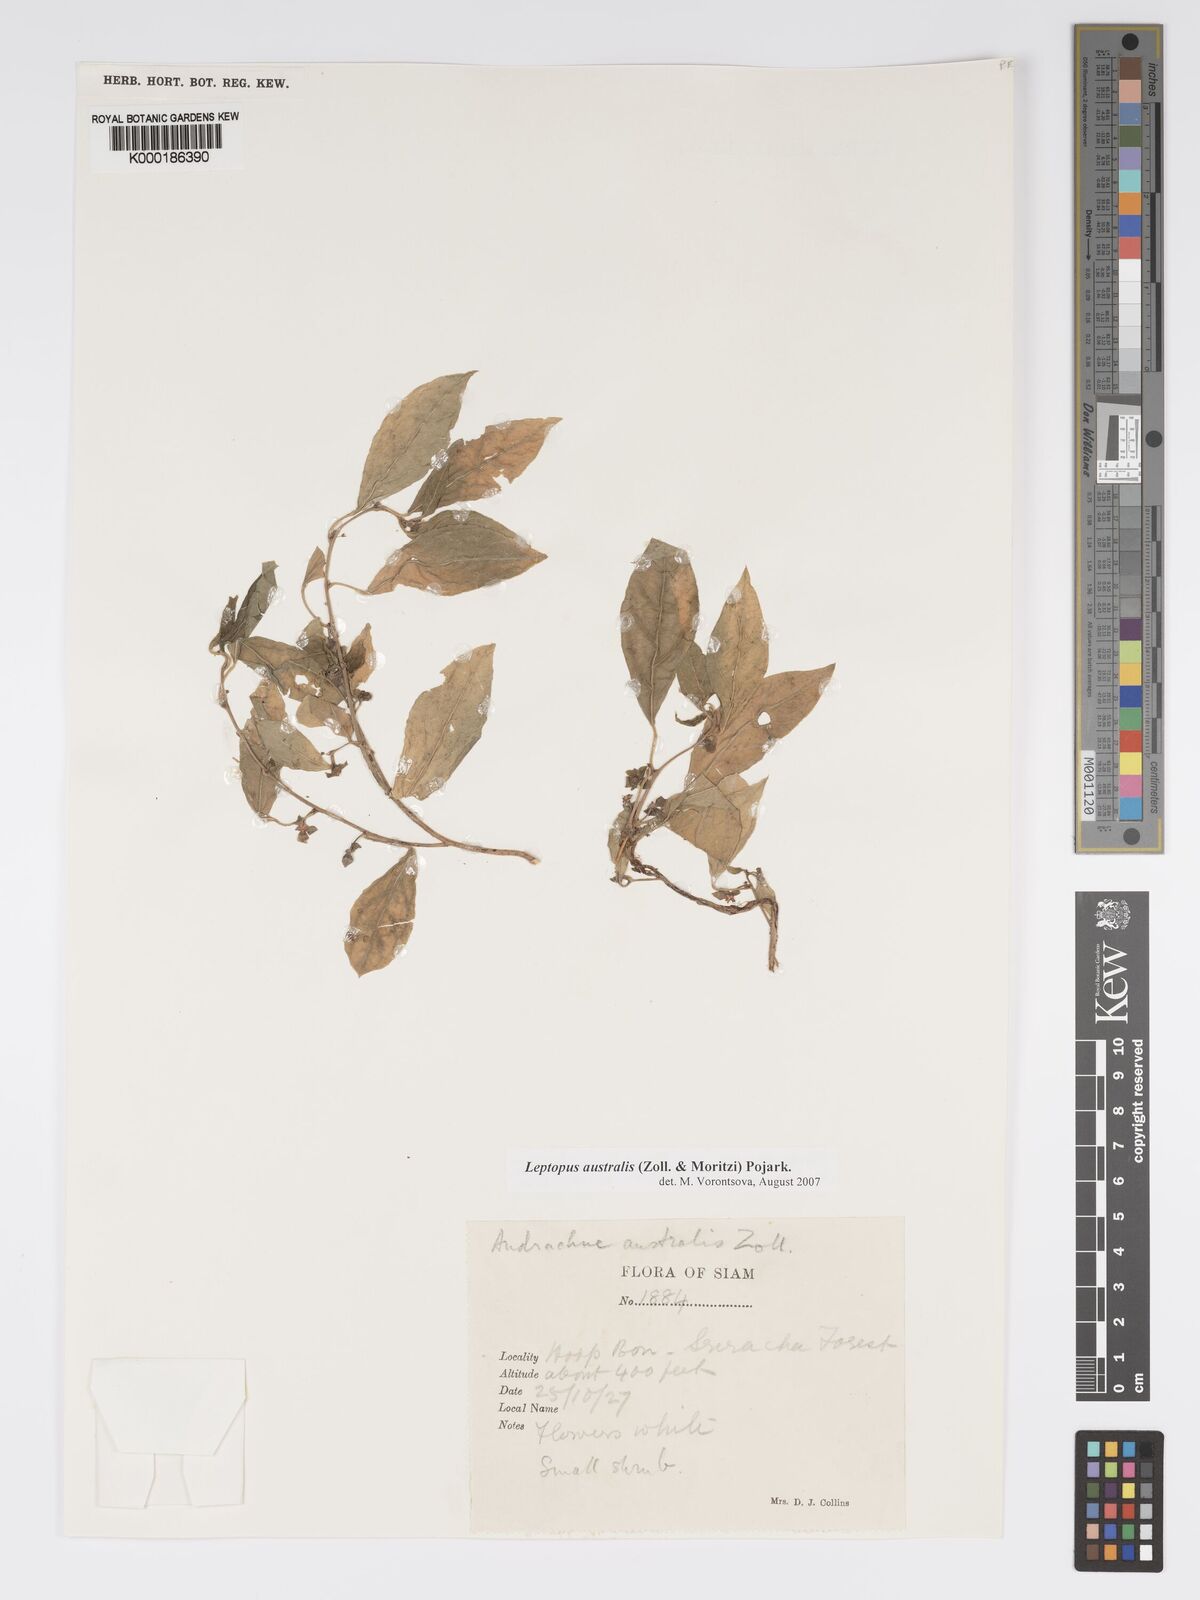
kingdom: Plantae
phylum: Tracheophyta
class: Magnoliopsida
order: Malpighiales
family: Phyllanthaceae
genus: Andrachne
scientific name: Andrachne
